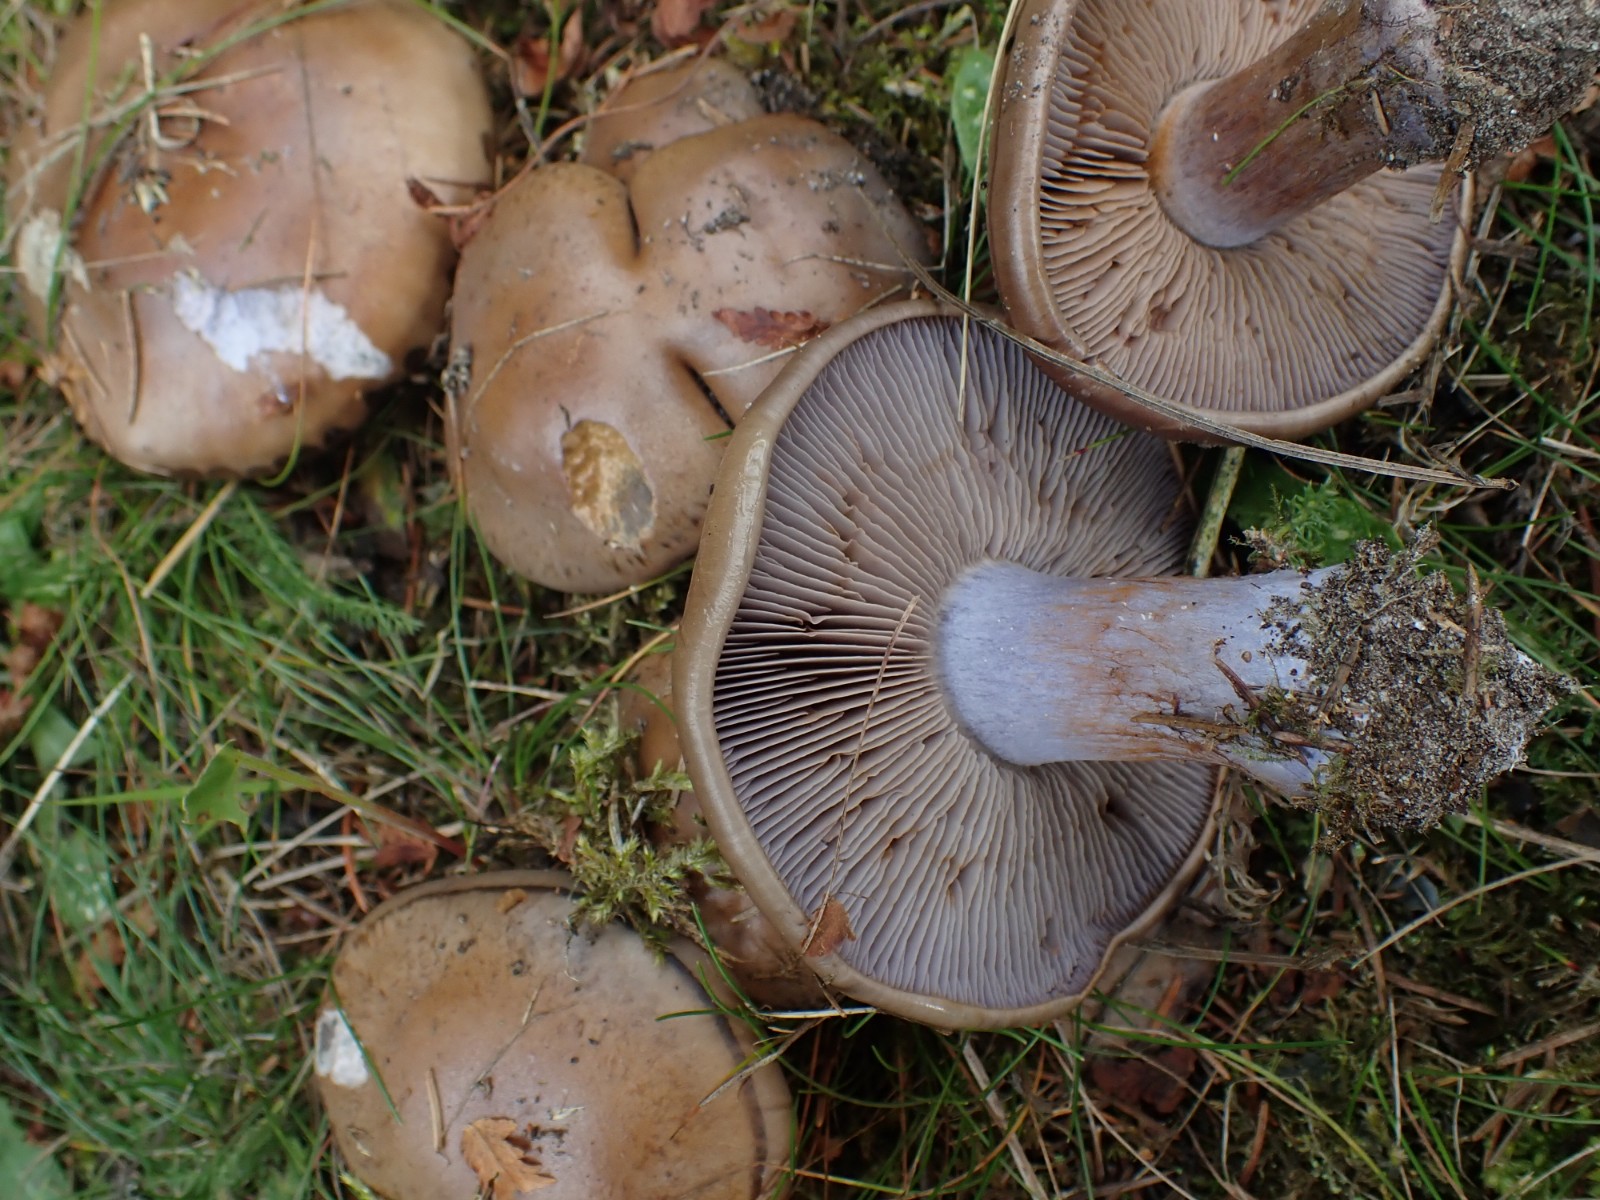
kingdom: Fungi
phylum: Basidiomycota
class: Agaricomycetes
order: Agaricales
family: Cortinariaceae
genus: Thaxterogaster
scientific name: Thaxterogaster purpurascens
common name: purpurbrun slørhat
